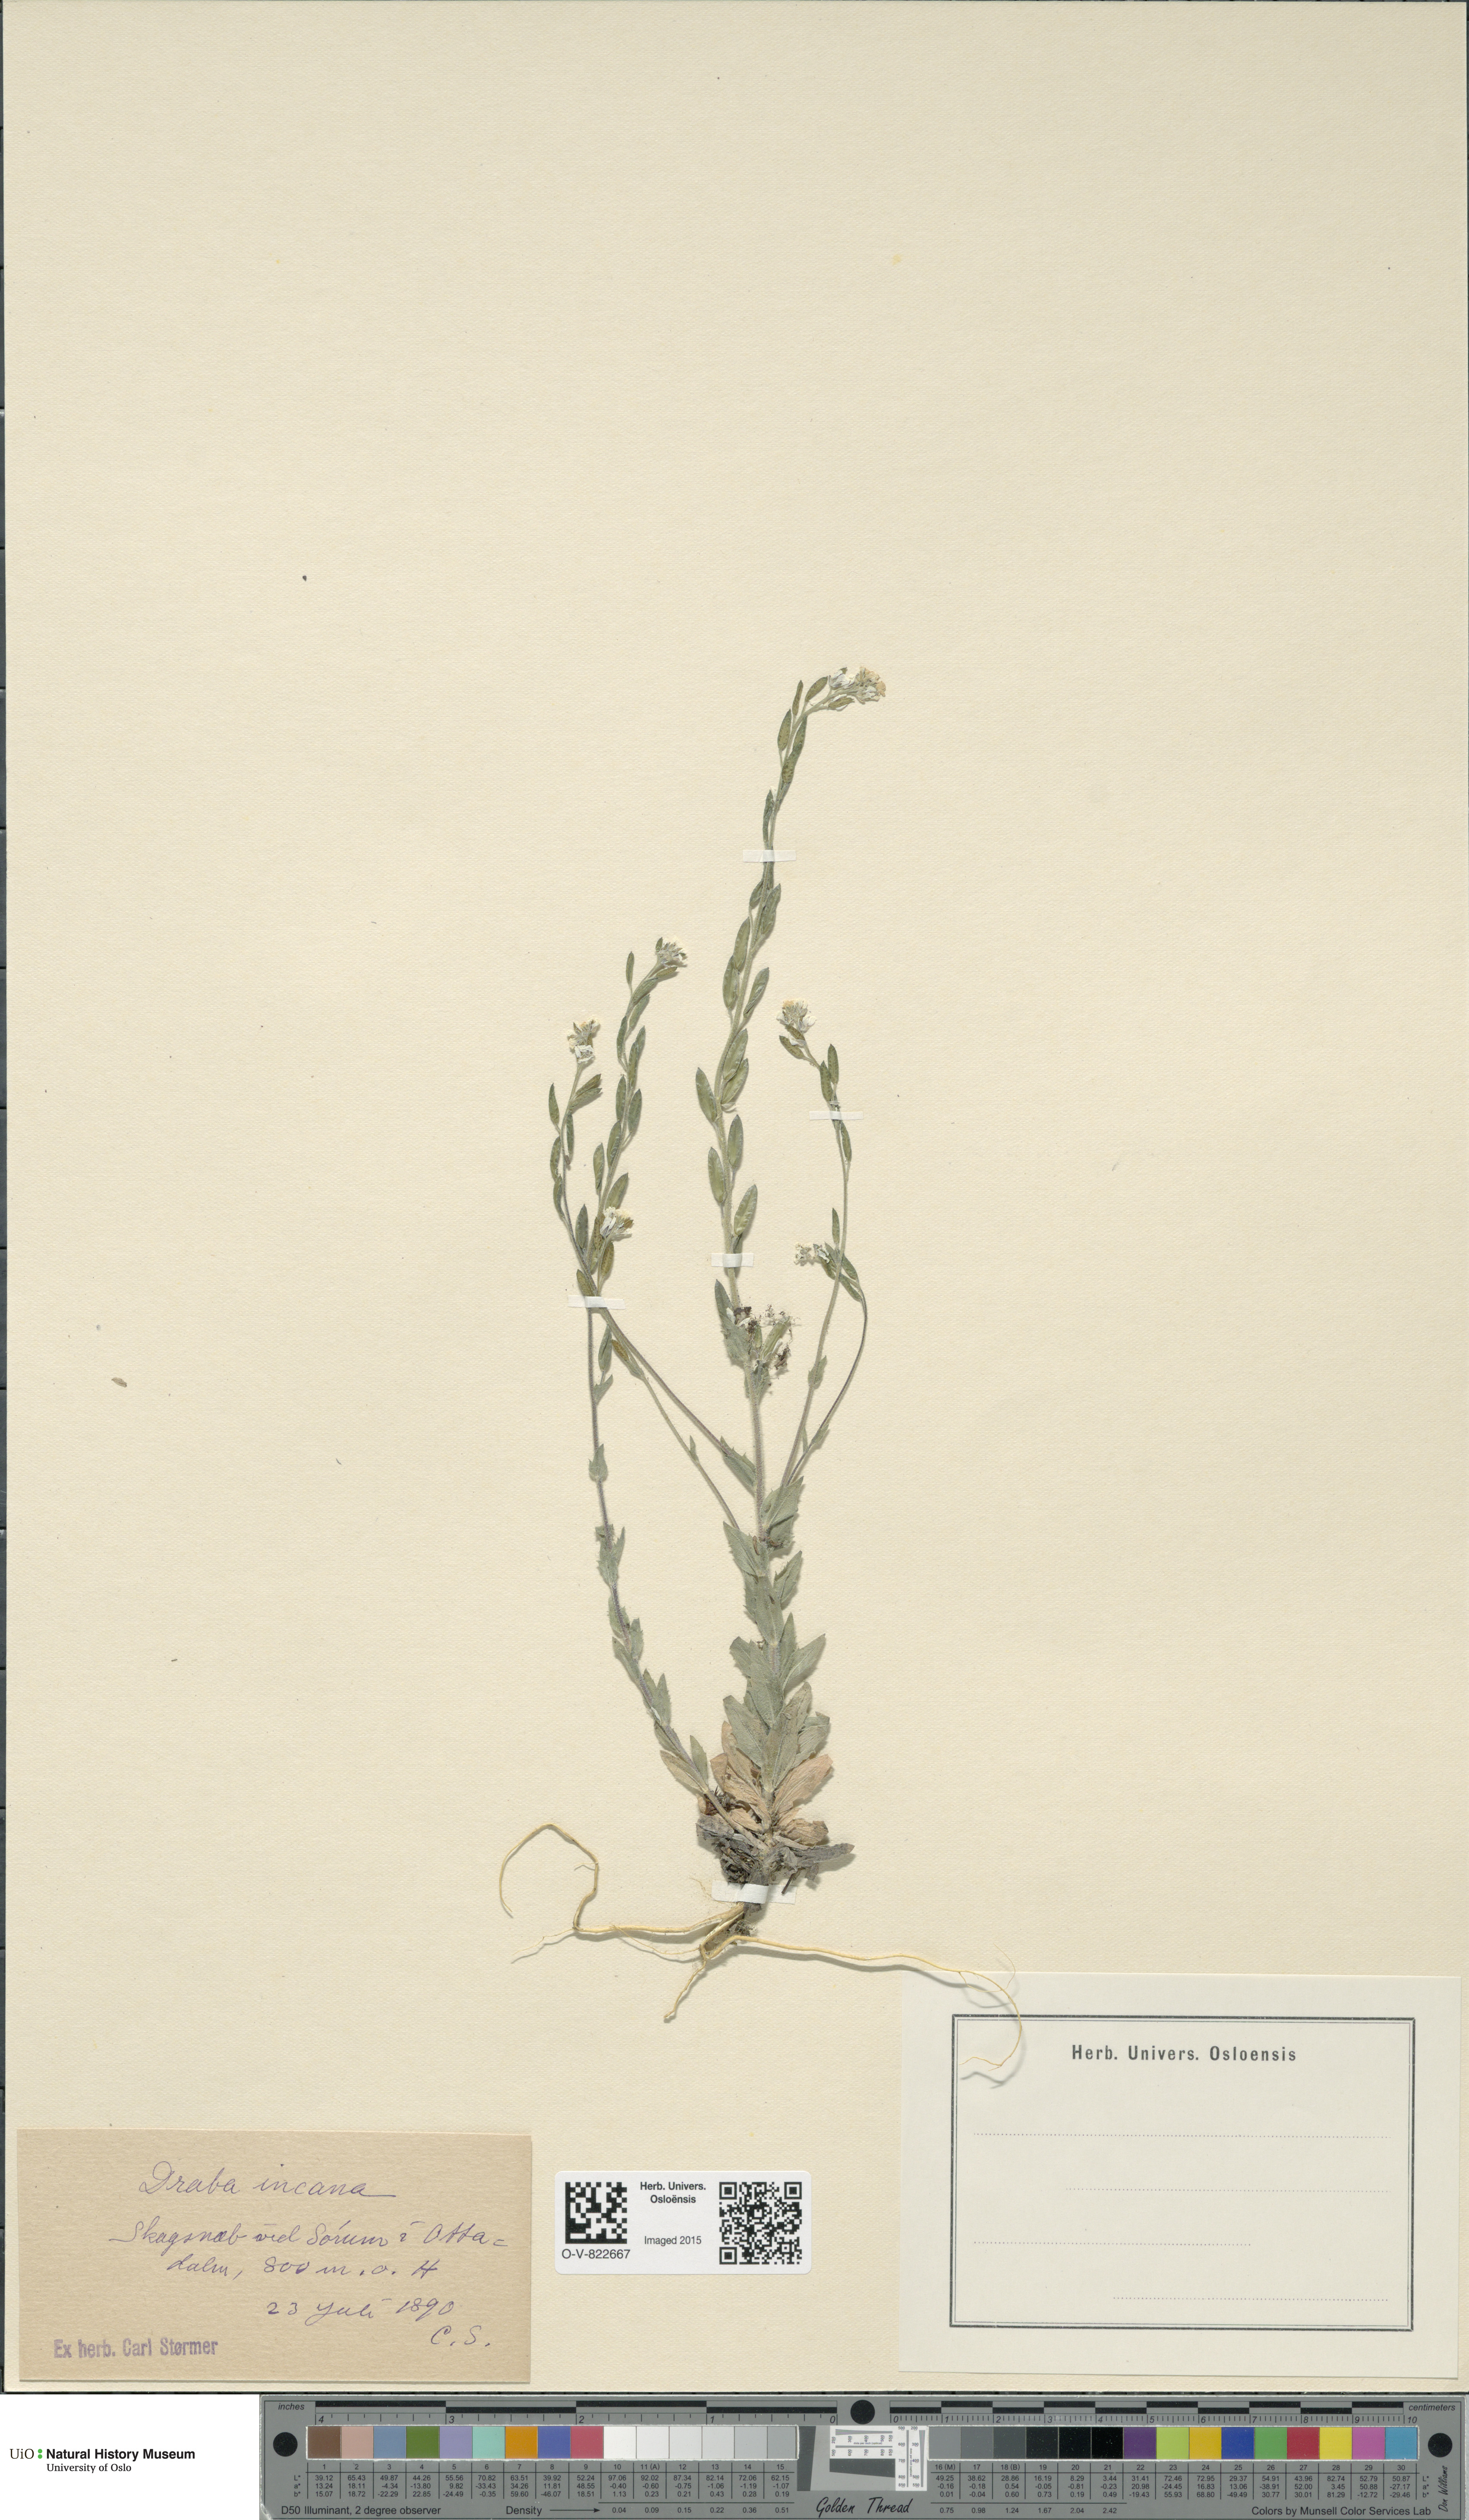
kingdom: Plantae
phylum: Tracheophyta
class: Magnoliopsida
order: Brassicales
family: Brassicaceae
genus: Draba
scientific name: Draba incana
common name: Hoary whitlow-grass
